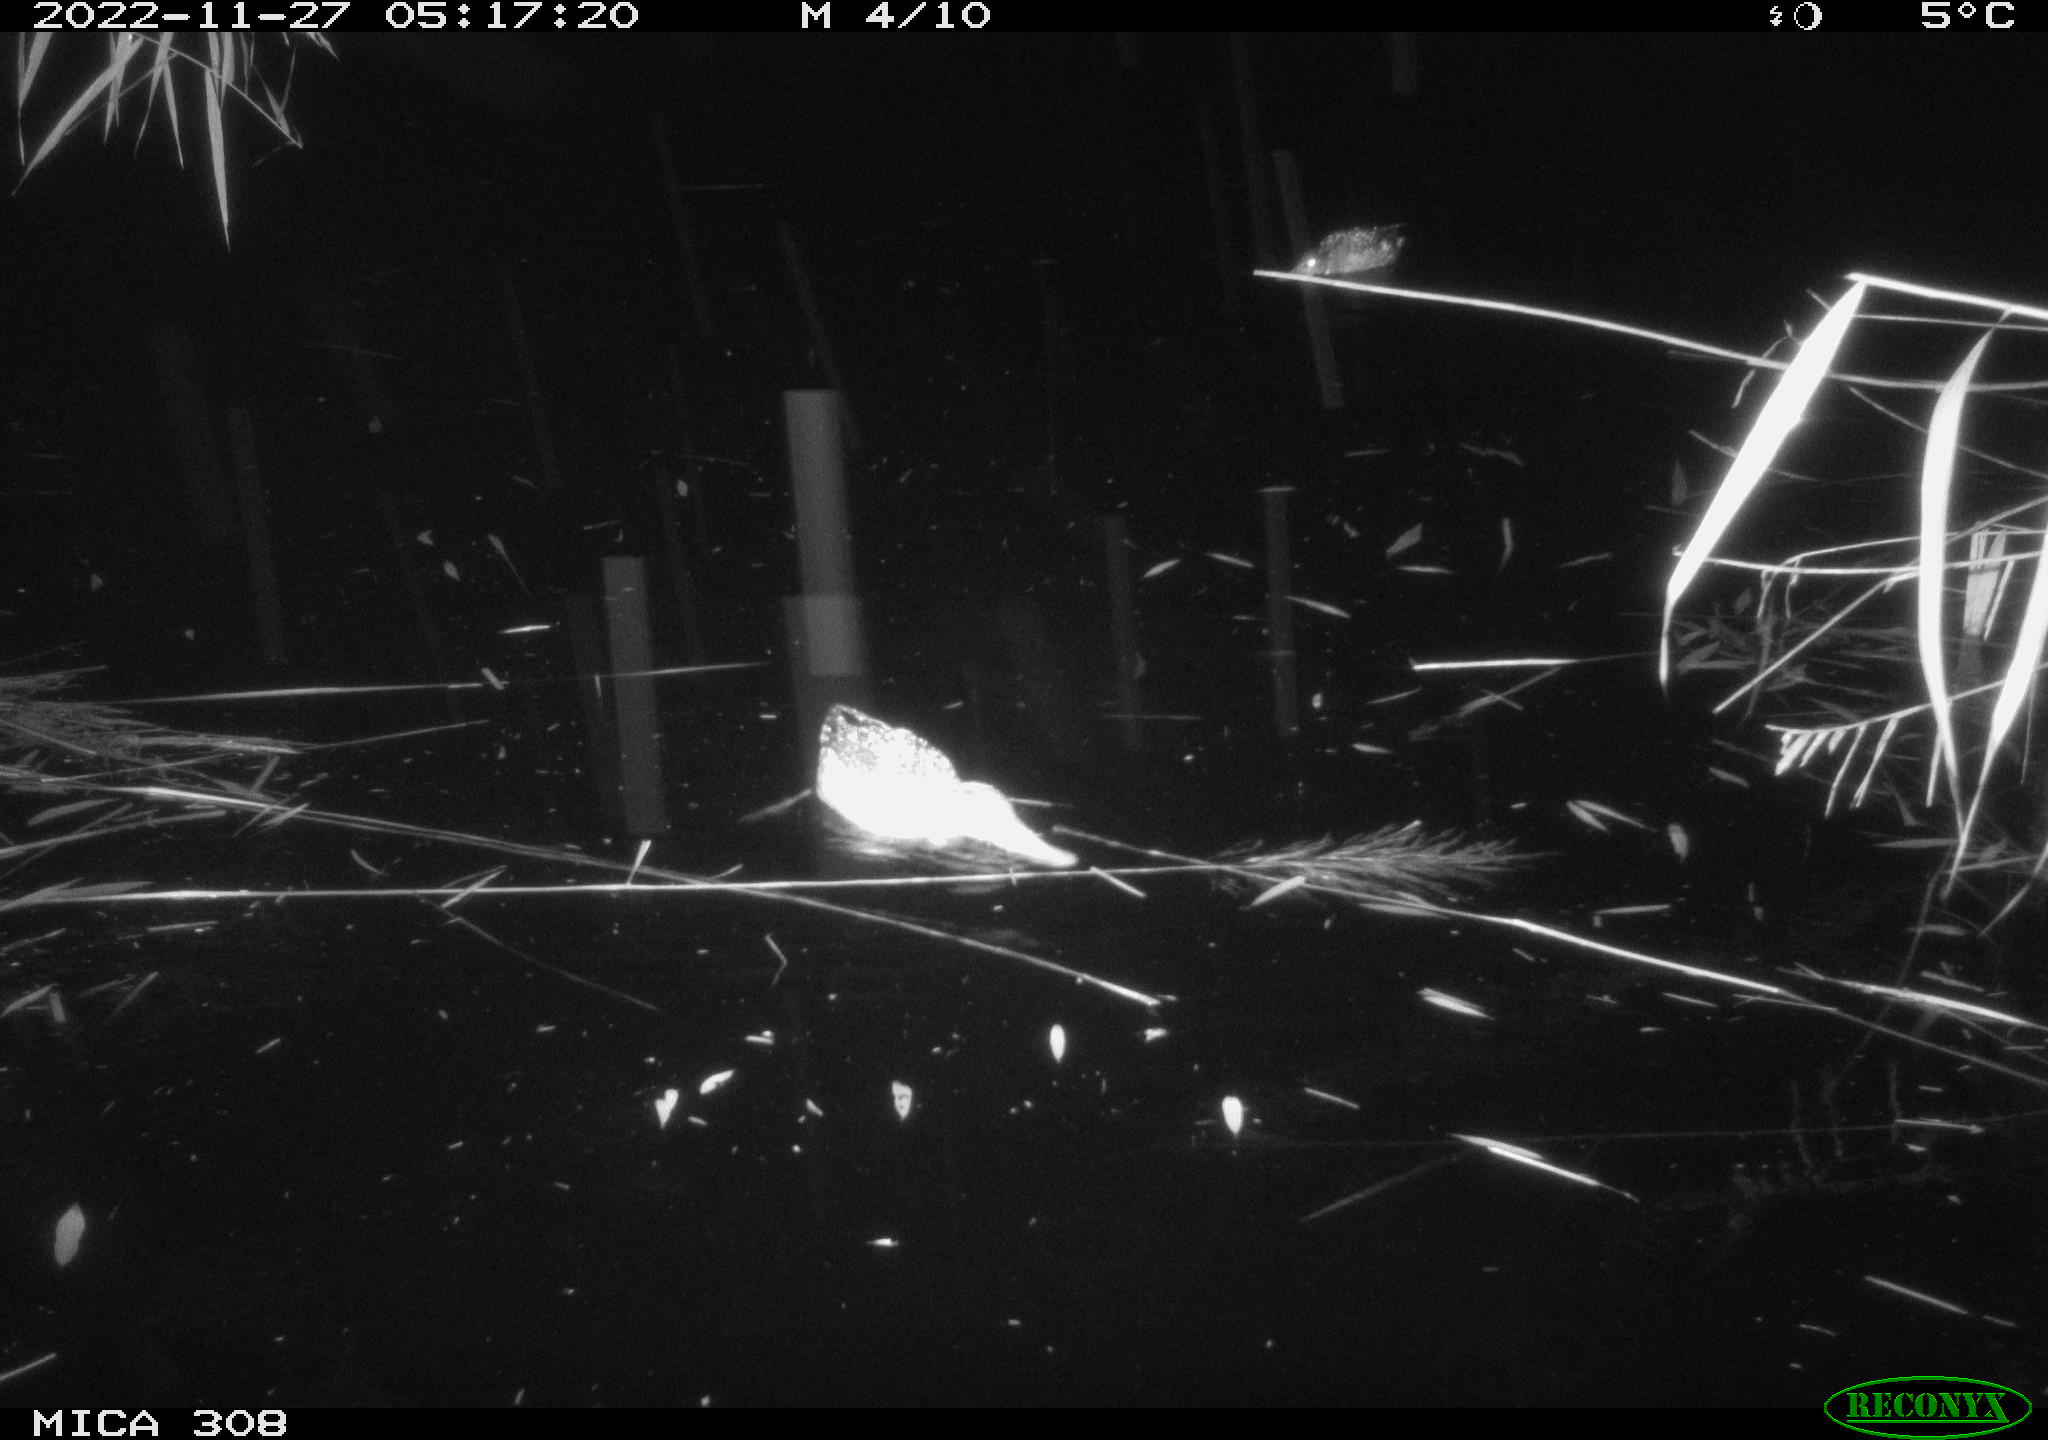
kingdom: Animalia
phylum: Chordata
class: Mammalia
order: Rodentia
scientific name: Rodentia
